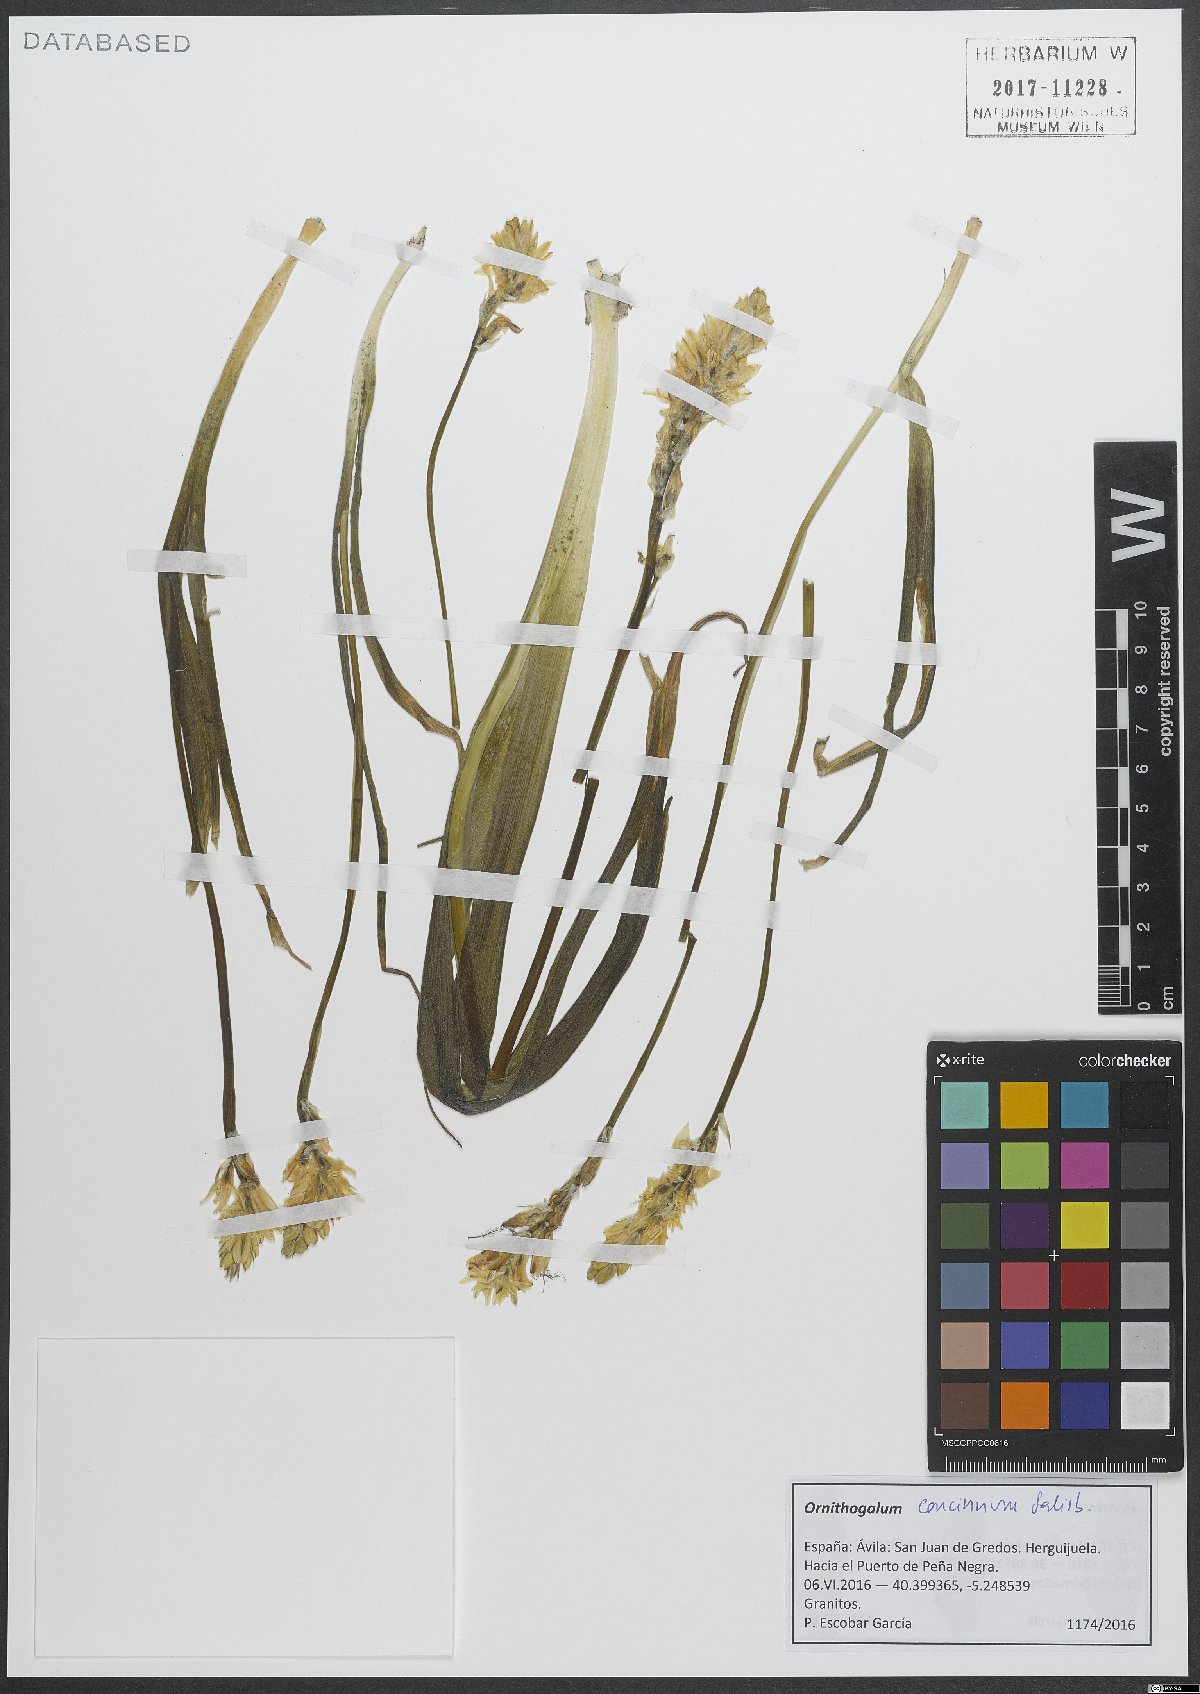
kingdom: Plantae
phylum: Tracheophyta
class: Liliopsida
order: Asparagales
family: Asparagaceae
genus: Ornithogalum
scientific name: Ornithogalum concinnum
